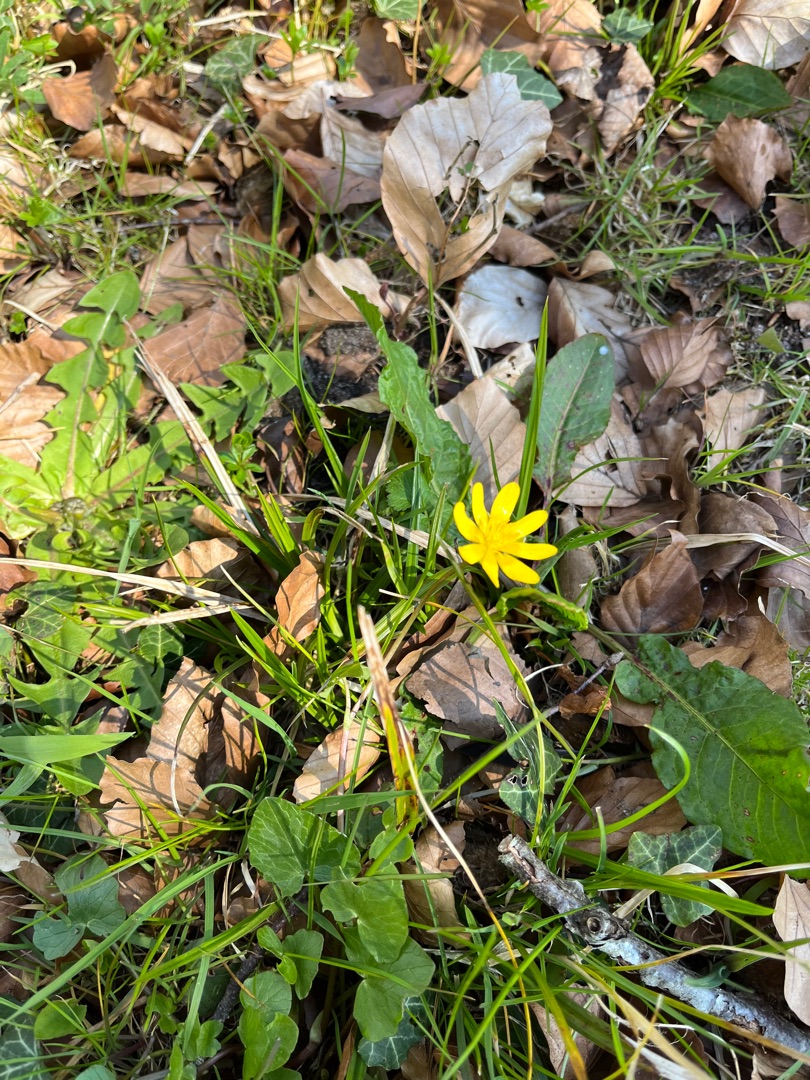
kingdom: Plantae
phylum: Tracheophyta
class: Magnoliopsida
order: Ranunculales
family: Ranunculaceae
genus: Ficaria
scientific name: Ficaria verna
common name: Vorterod
